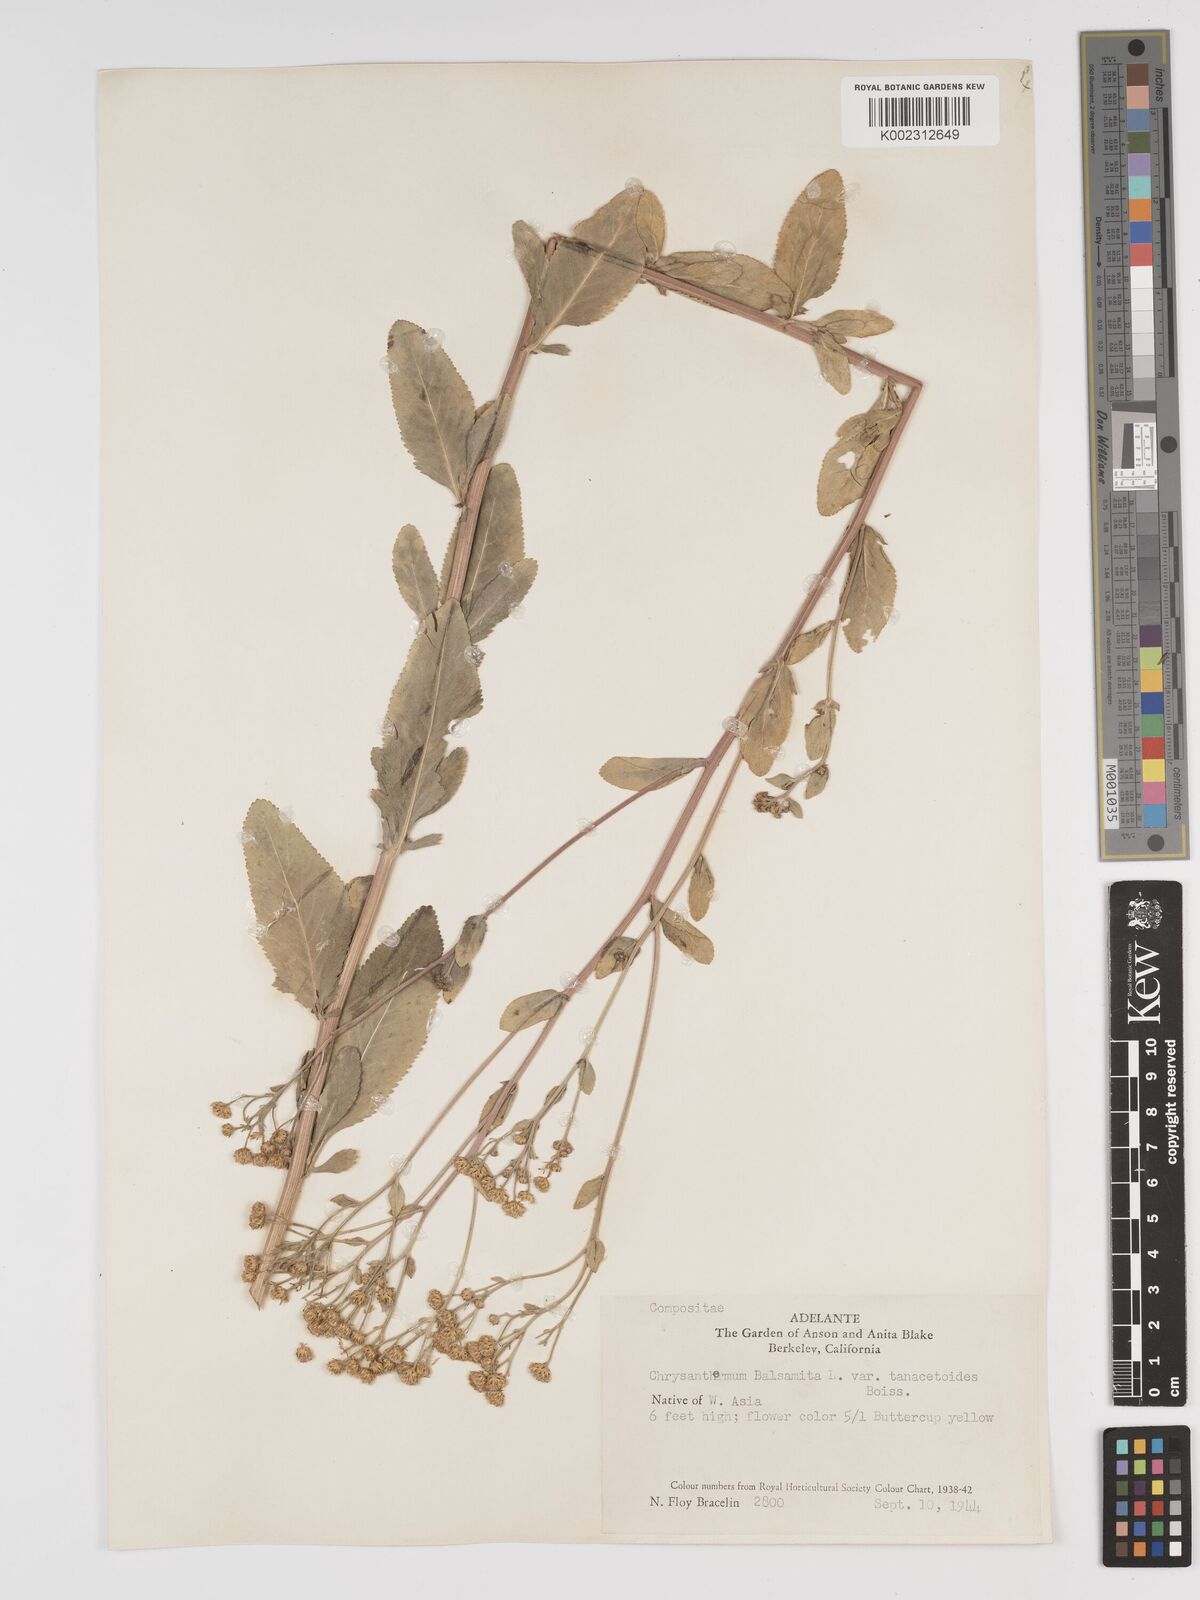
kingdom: Plantae
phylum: Tracheophyta
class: Magnoliopsida
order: Asterales
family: Asteraceae
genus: Tanacetum
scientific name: Tanacetum balsamita
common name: Costmary
